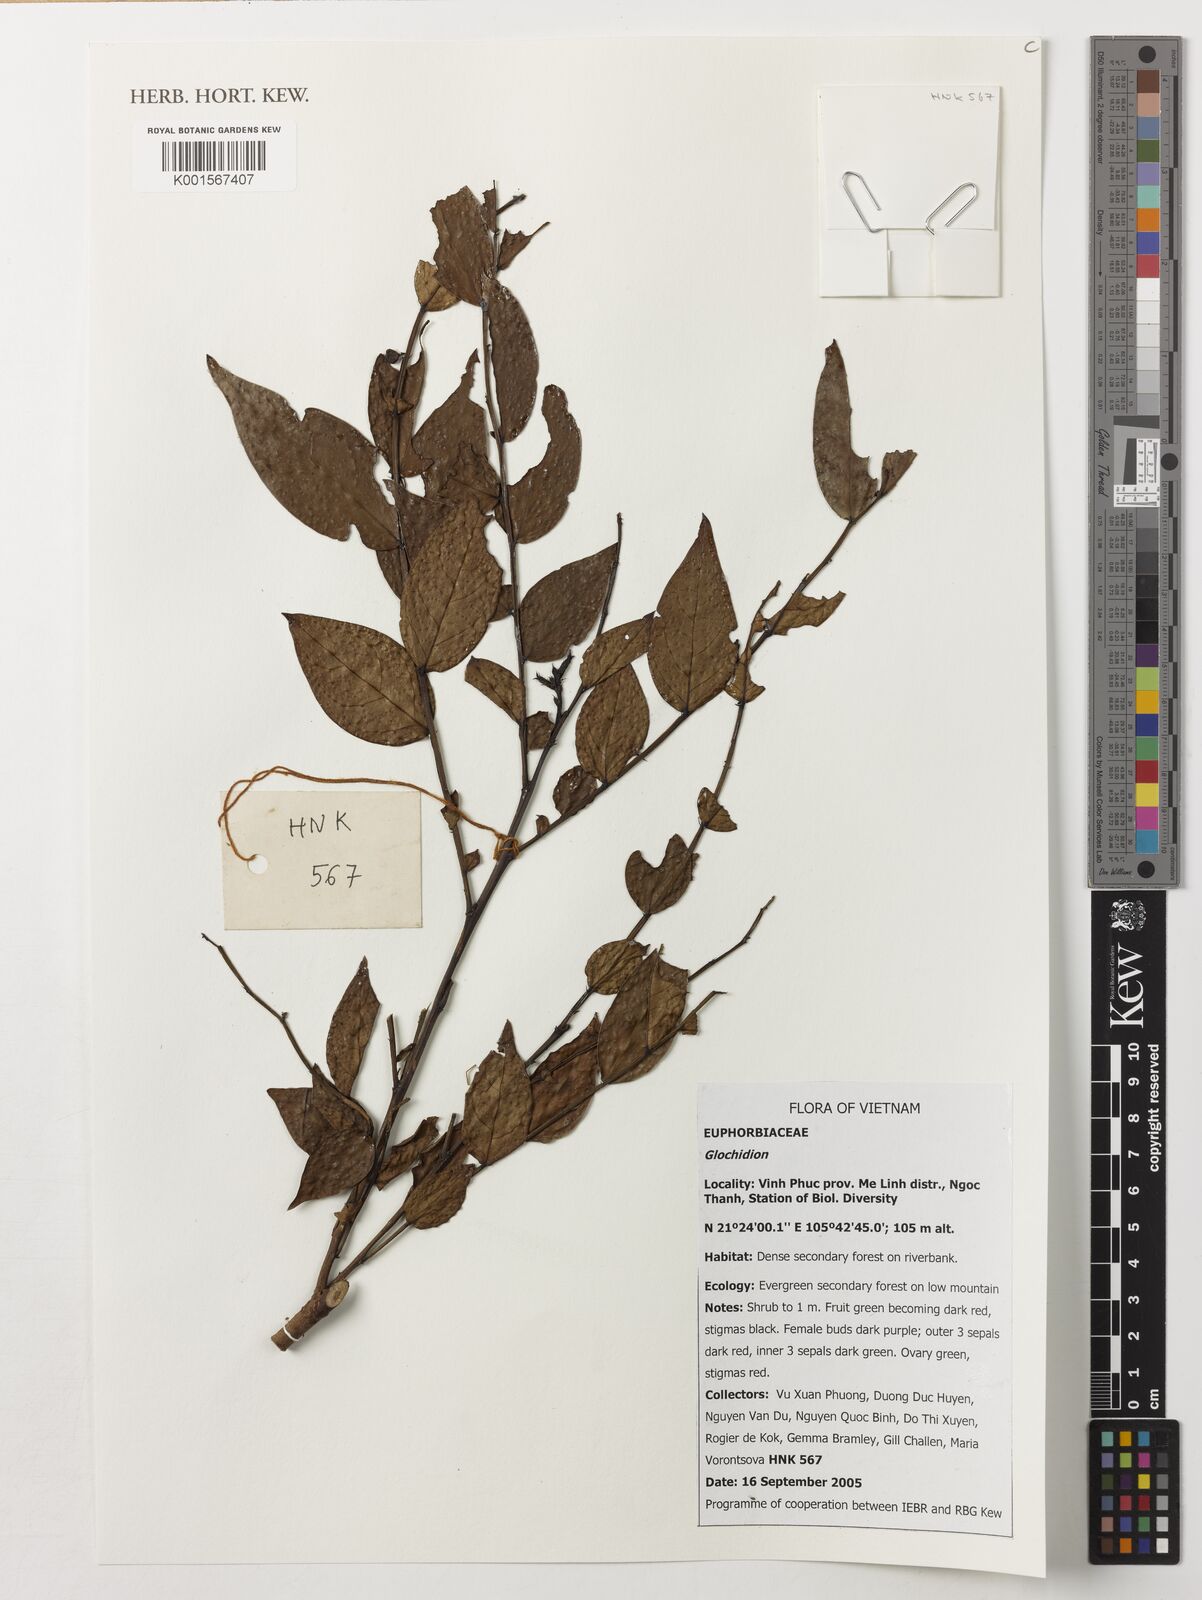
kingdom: Plantae
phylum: Tracheophyta
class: Magnoliopsida
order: Malpighiales
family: Phyllanthaceae
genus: Glochidion
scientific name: Glochidion
